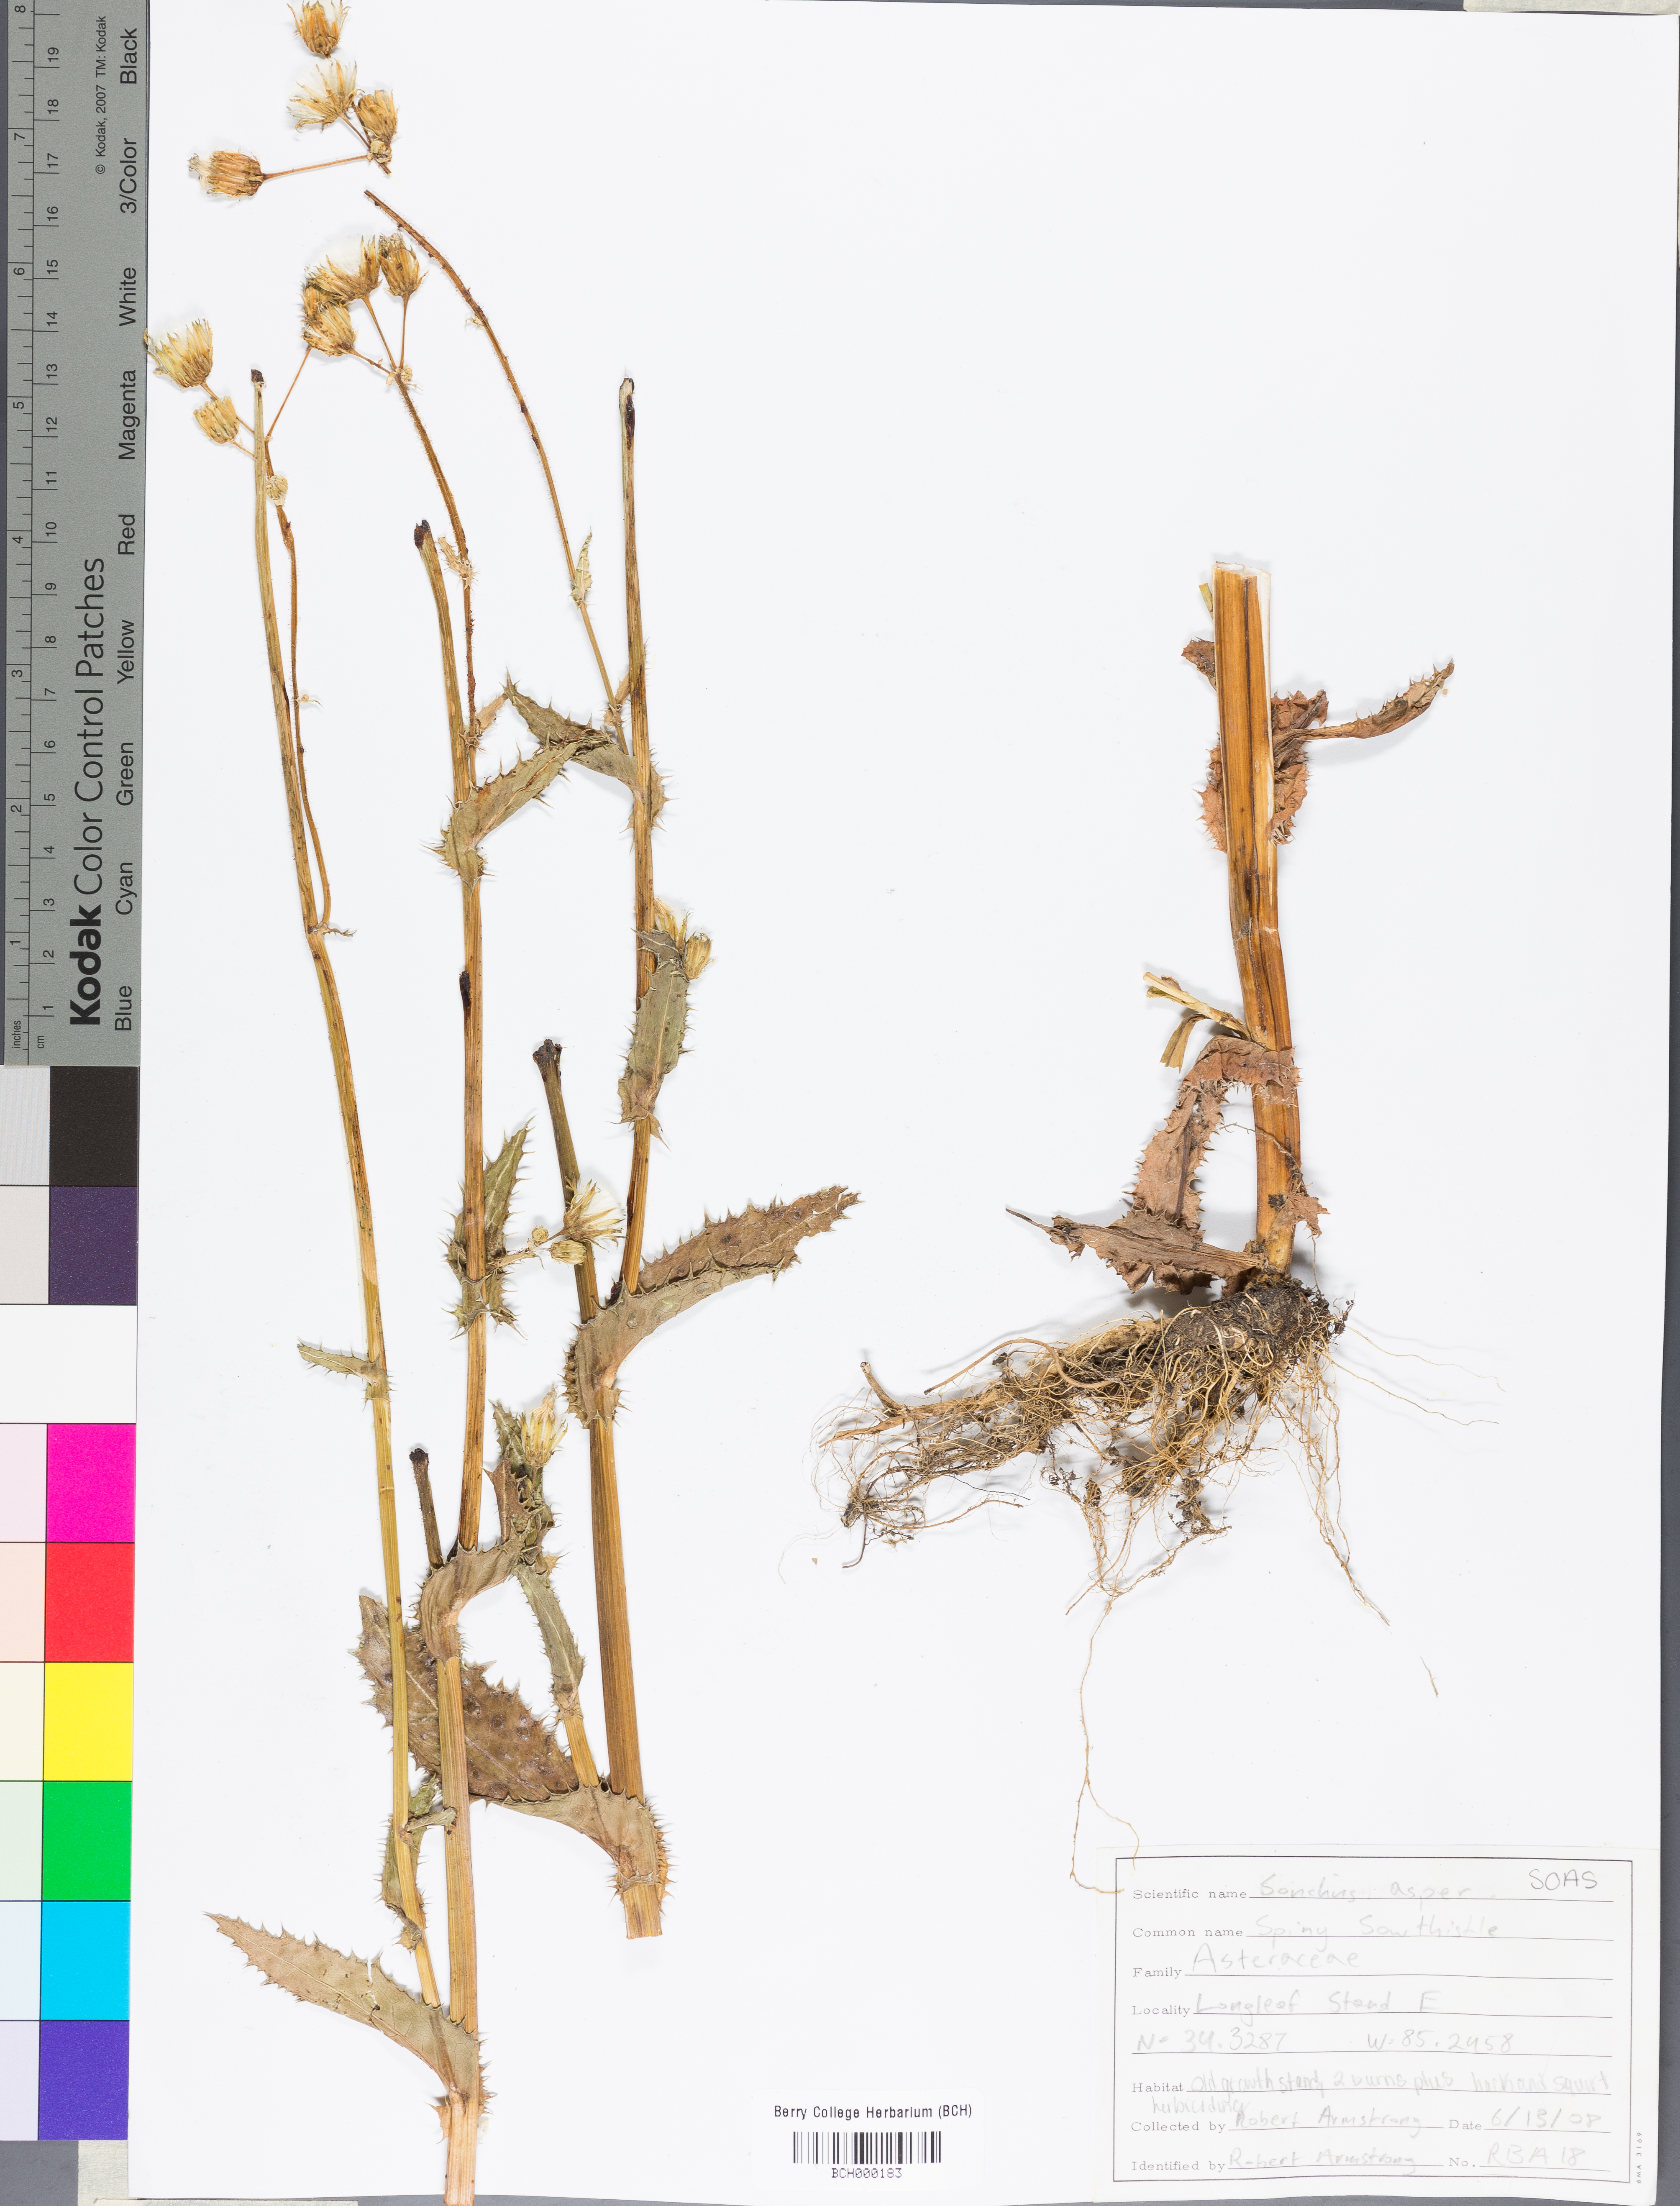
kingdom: Plantae
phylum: Tracheophyta
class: Magnoliopsida
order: Asterales
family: Asteraceae
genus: Sonchus
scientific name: Sonchus asper
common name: Prickly sow-thistle
